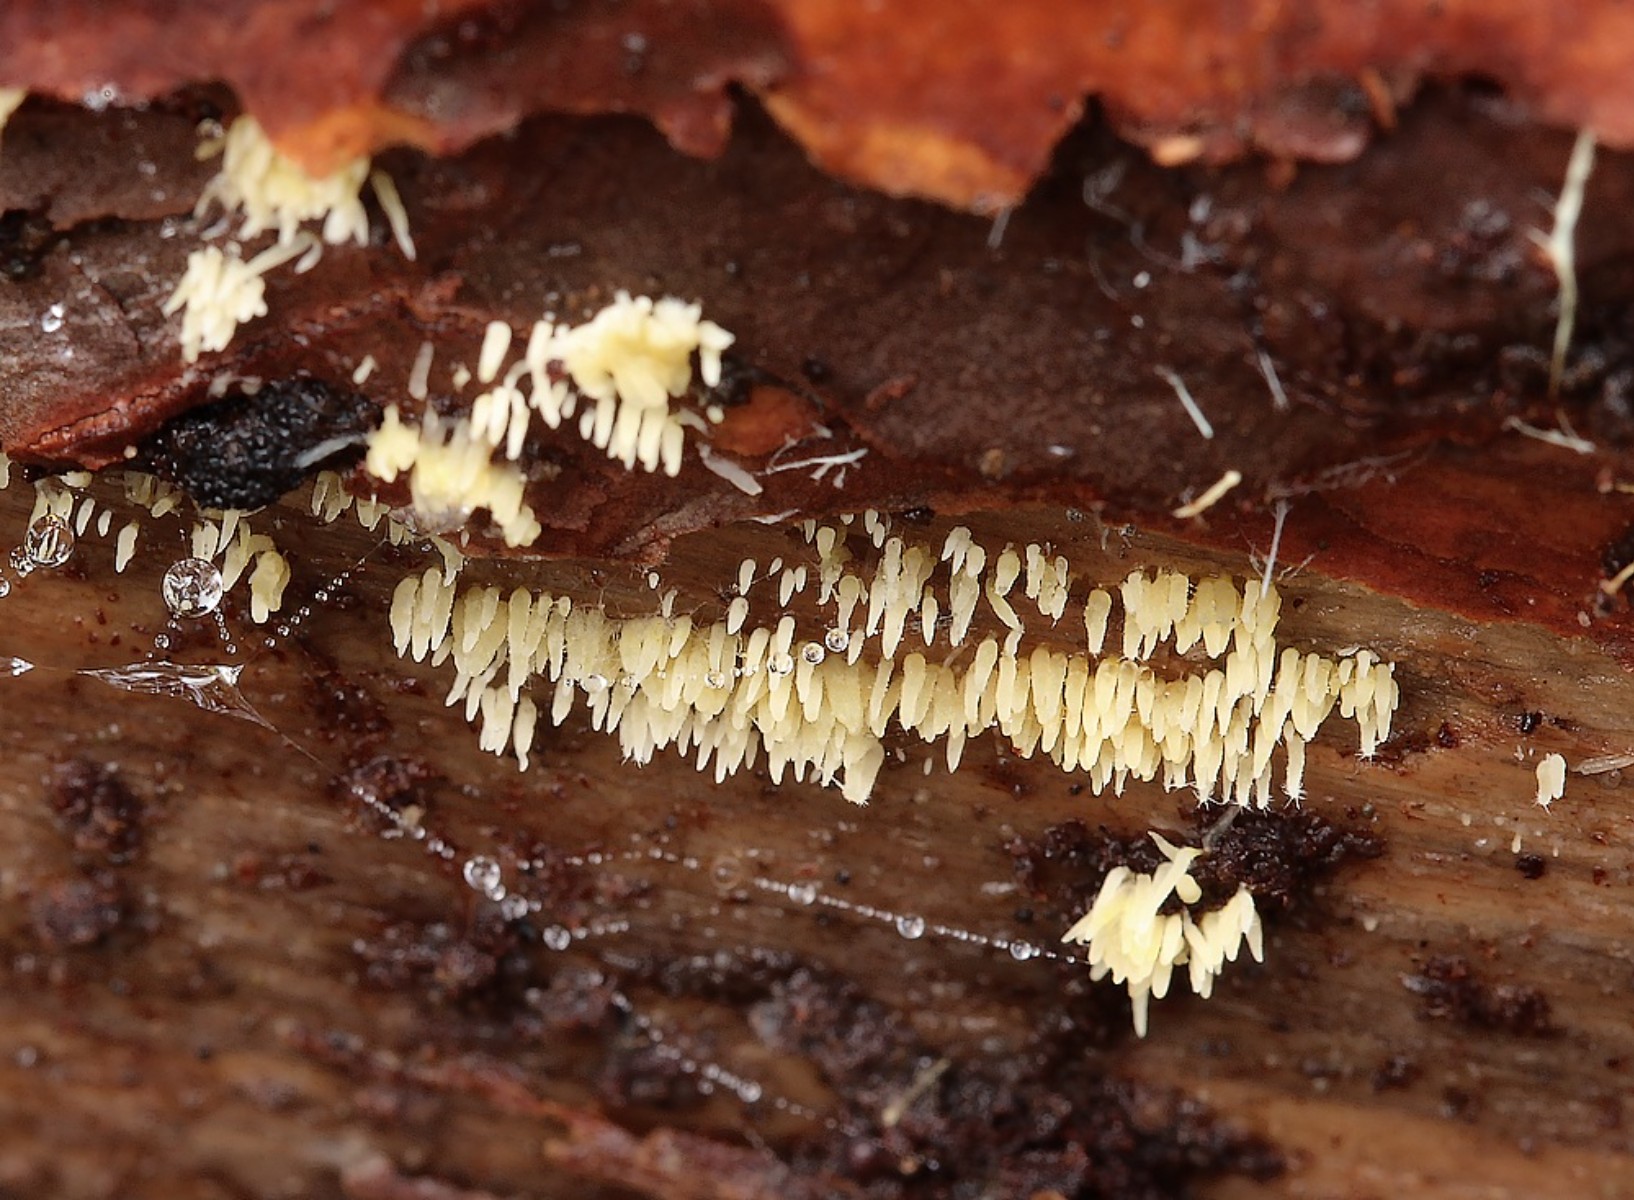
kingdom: Fungi
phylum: Basidiomycota
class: Agaricomycetes
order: Agaricales
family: Clavariaceae
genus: Mucronella
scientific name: Mucronella flava
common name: gul hængepig
